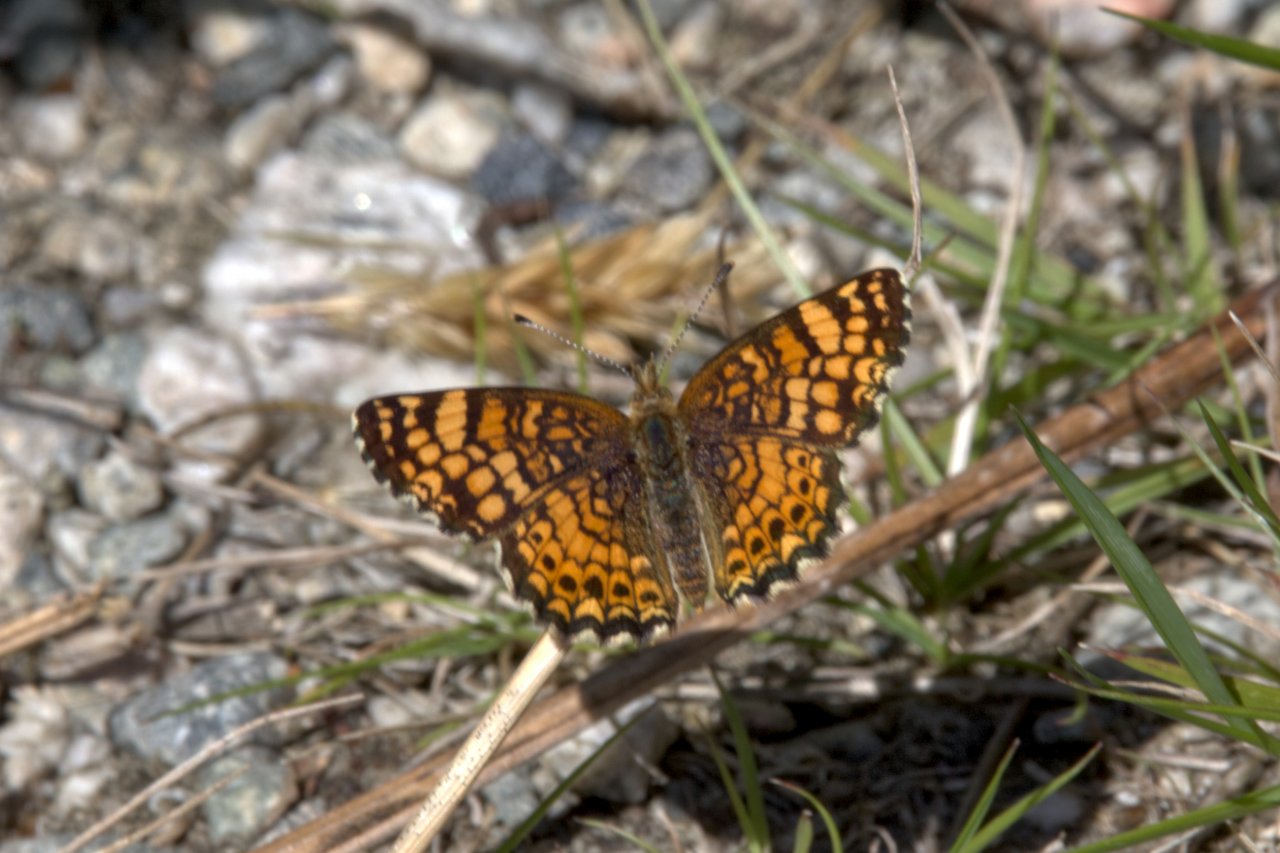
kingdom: Animalia
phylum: Arthropoda
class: Insecta
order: Lepidoptera
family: Nymphalidae
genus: Eresia
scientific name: Eresia aveyrona
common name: Mylitta Crescent
